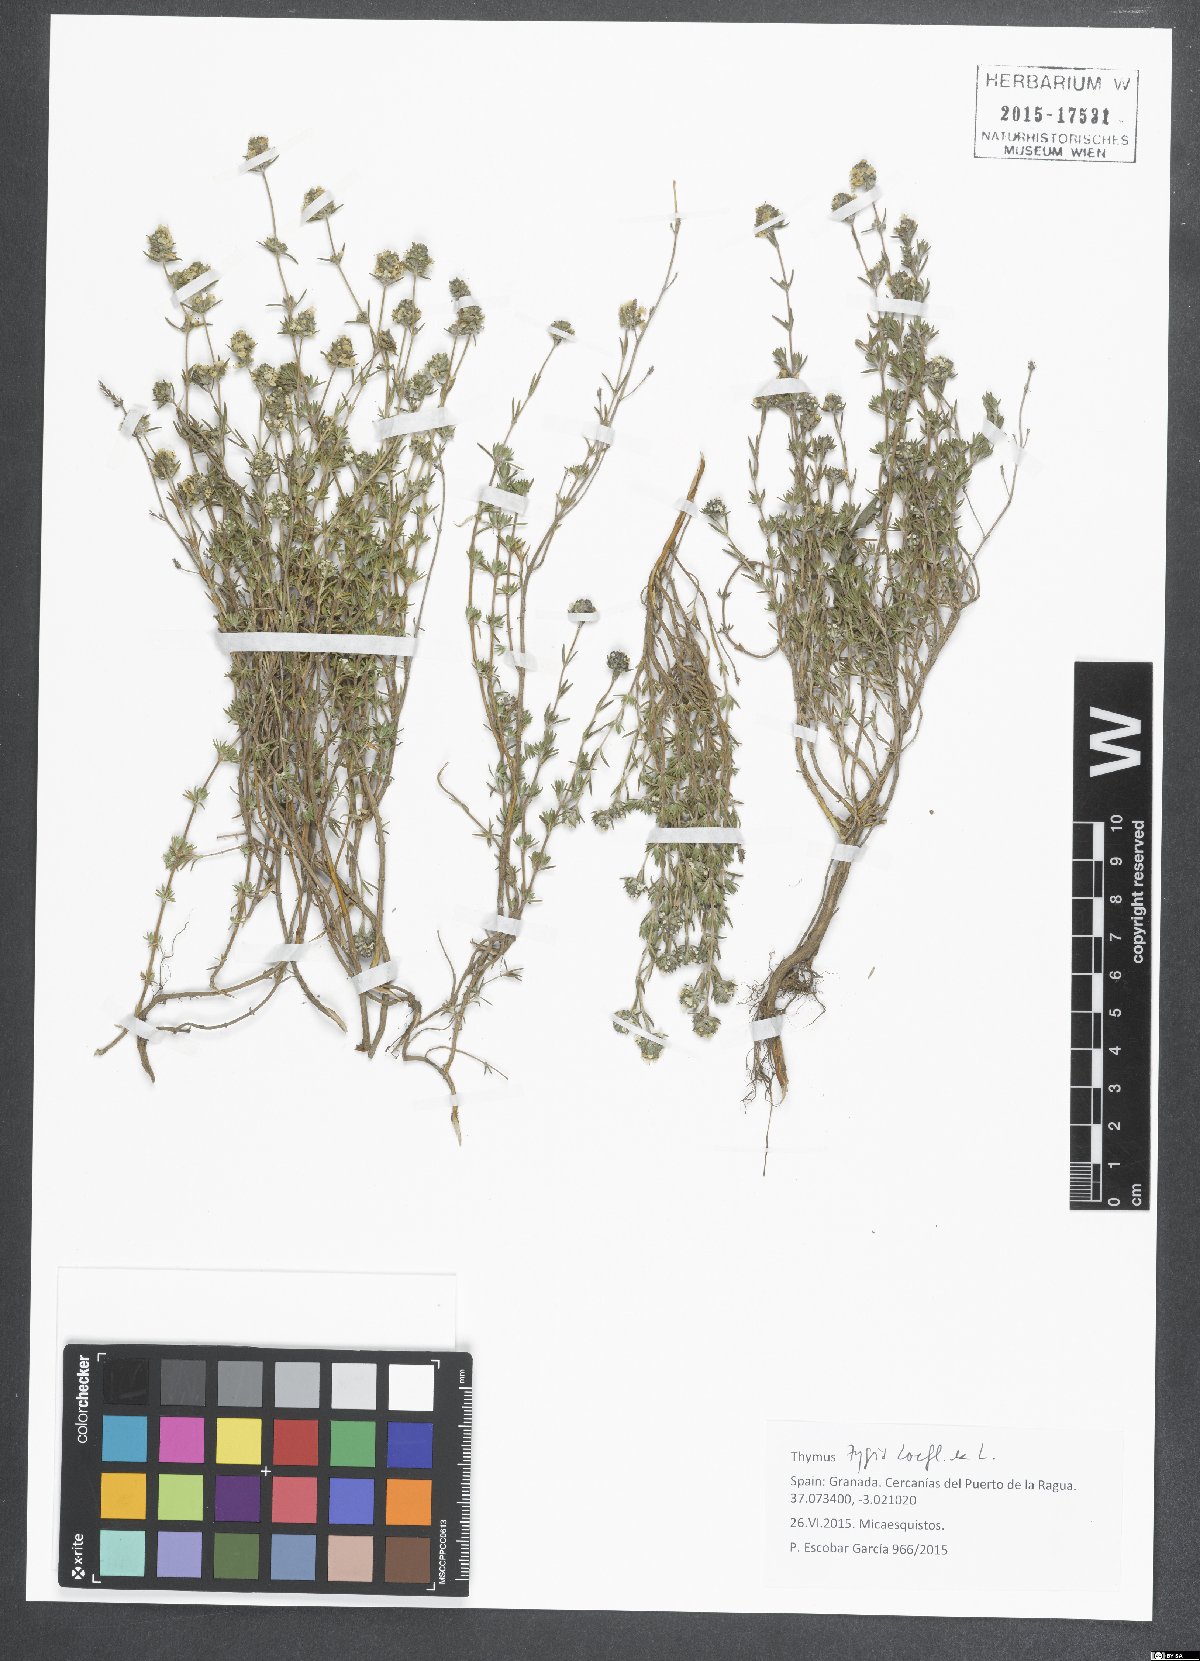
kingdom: Plantae
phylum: Tracheophyta
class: Magnoliopsida
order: Lamiales
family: Lamiaceae
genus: Thymus
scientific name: Thymus zygis
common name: White thyme
